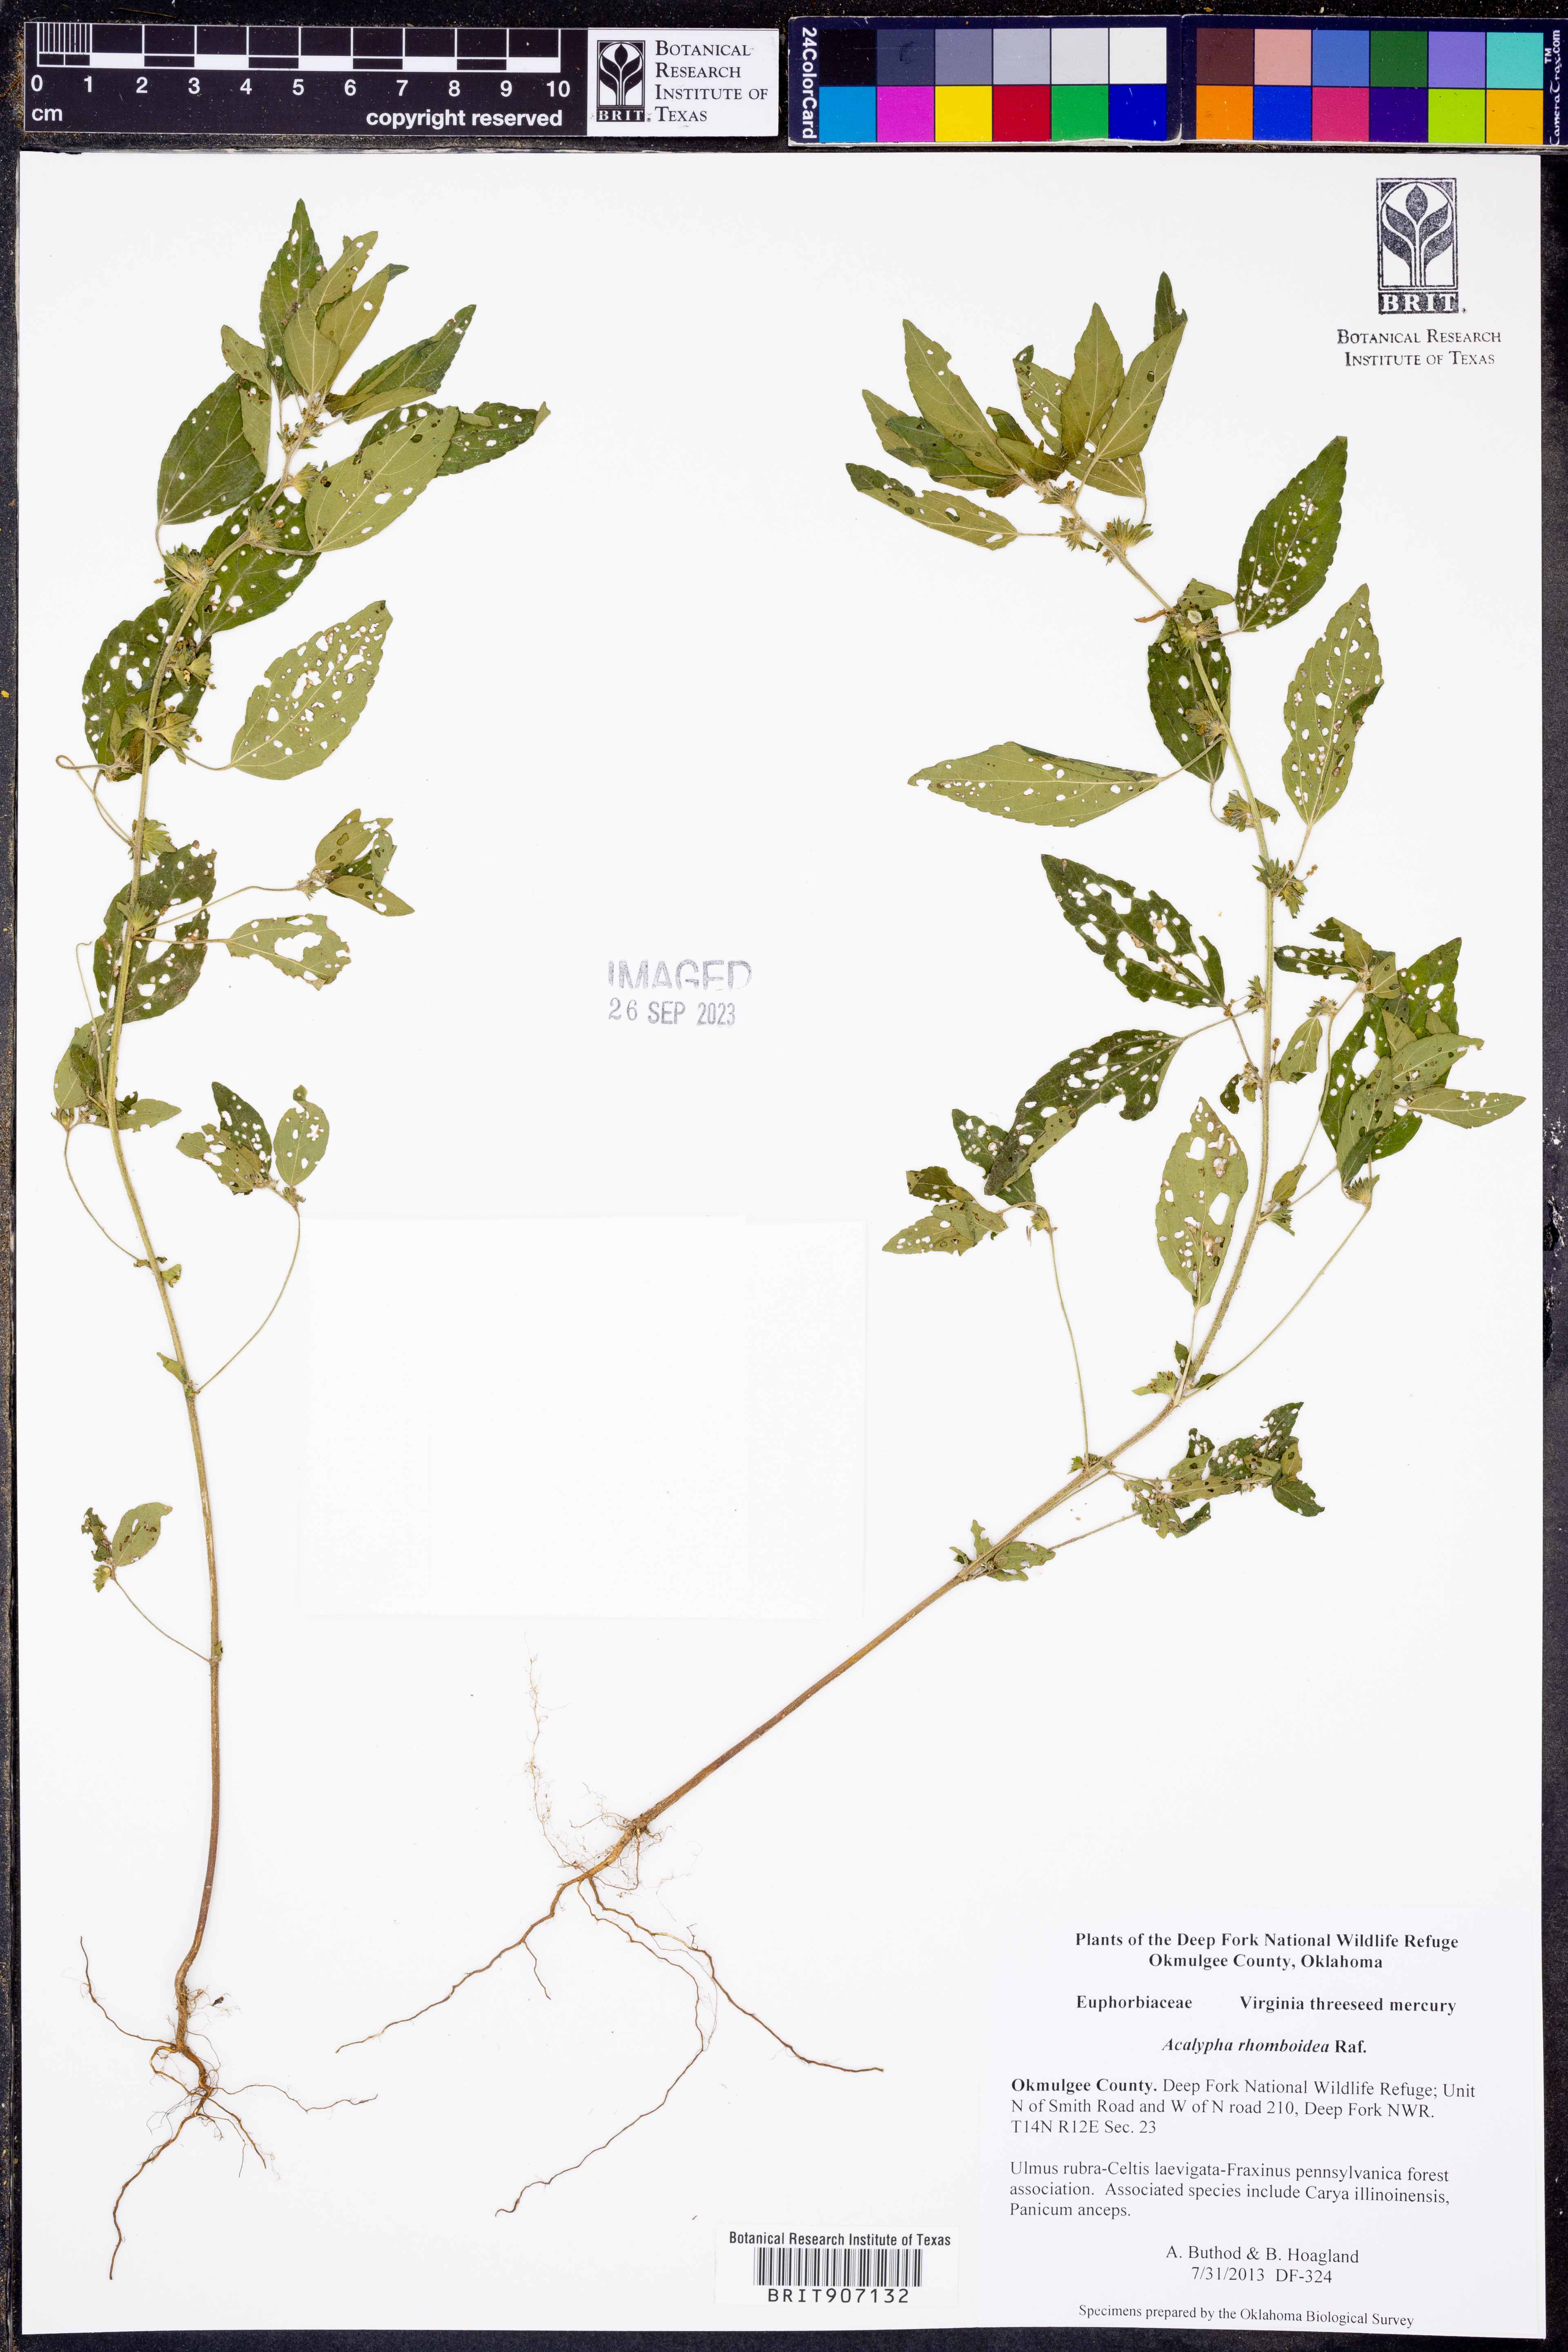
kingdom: Plantae
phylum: Tracheophyta
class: Magnoliopsida
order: Malpighiales
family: Euphorbiaceae
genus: Acalypha
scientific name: Acalypha rhomboidea
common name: Rhombic copperleaf
